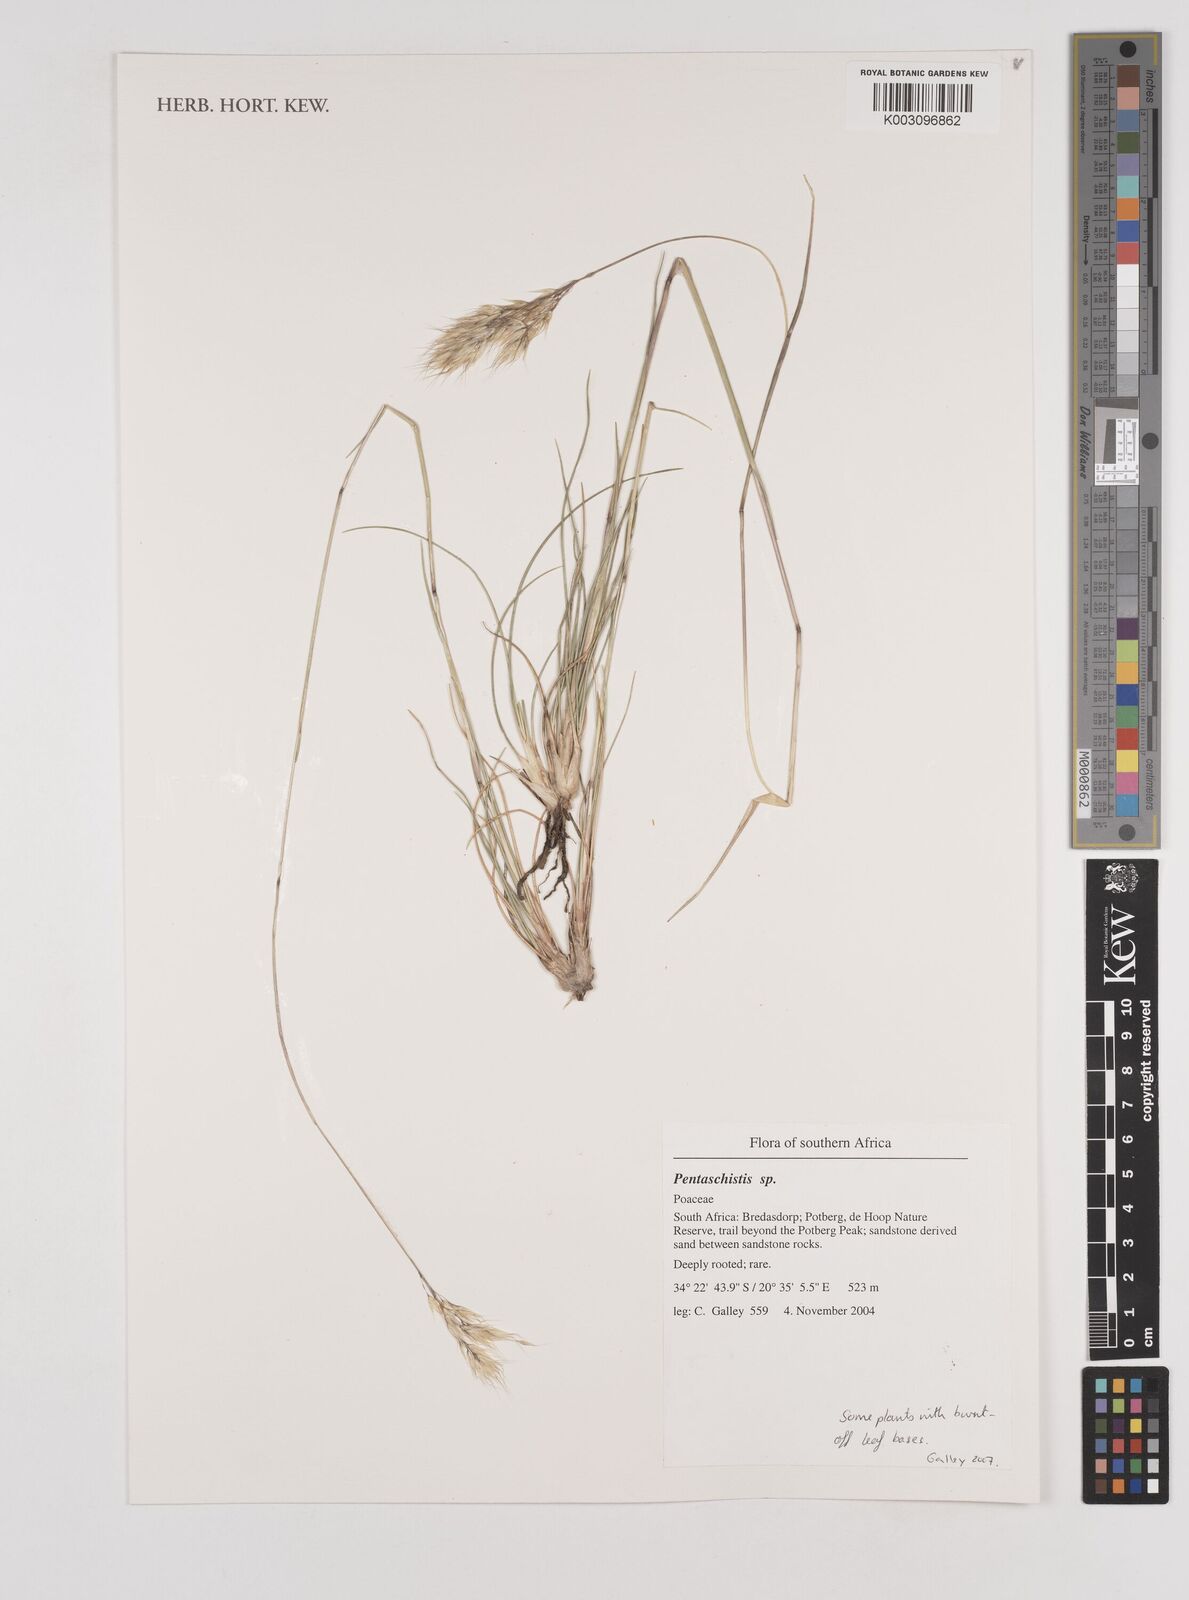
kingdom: Plantae
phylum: Tracheophyta
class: Liliopsida
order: Poales
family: Poaceae
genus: Pentaschistis
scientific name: Pentaschistis
